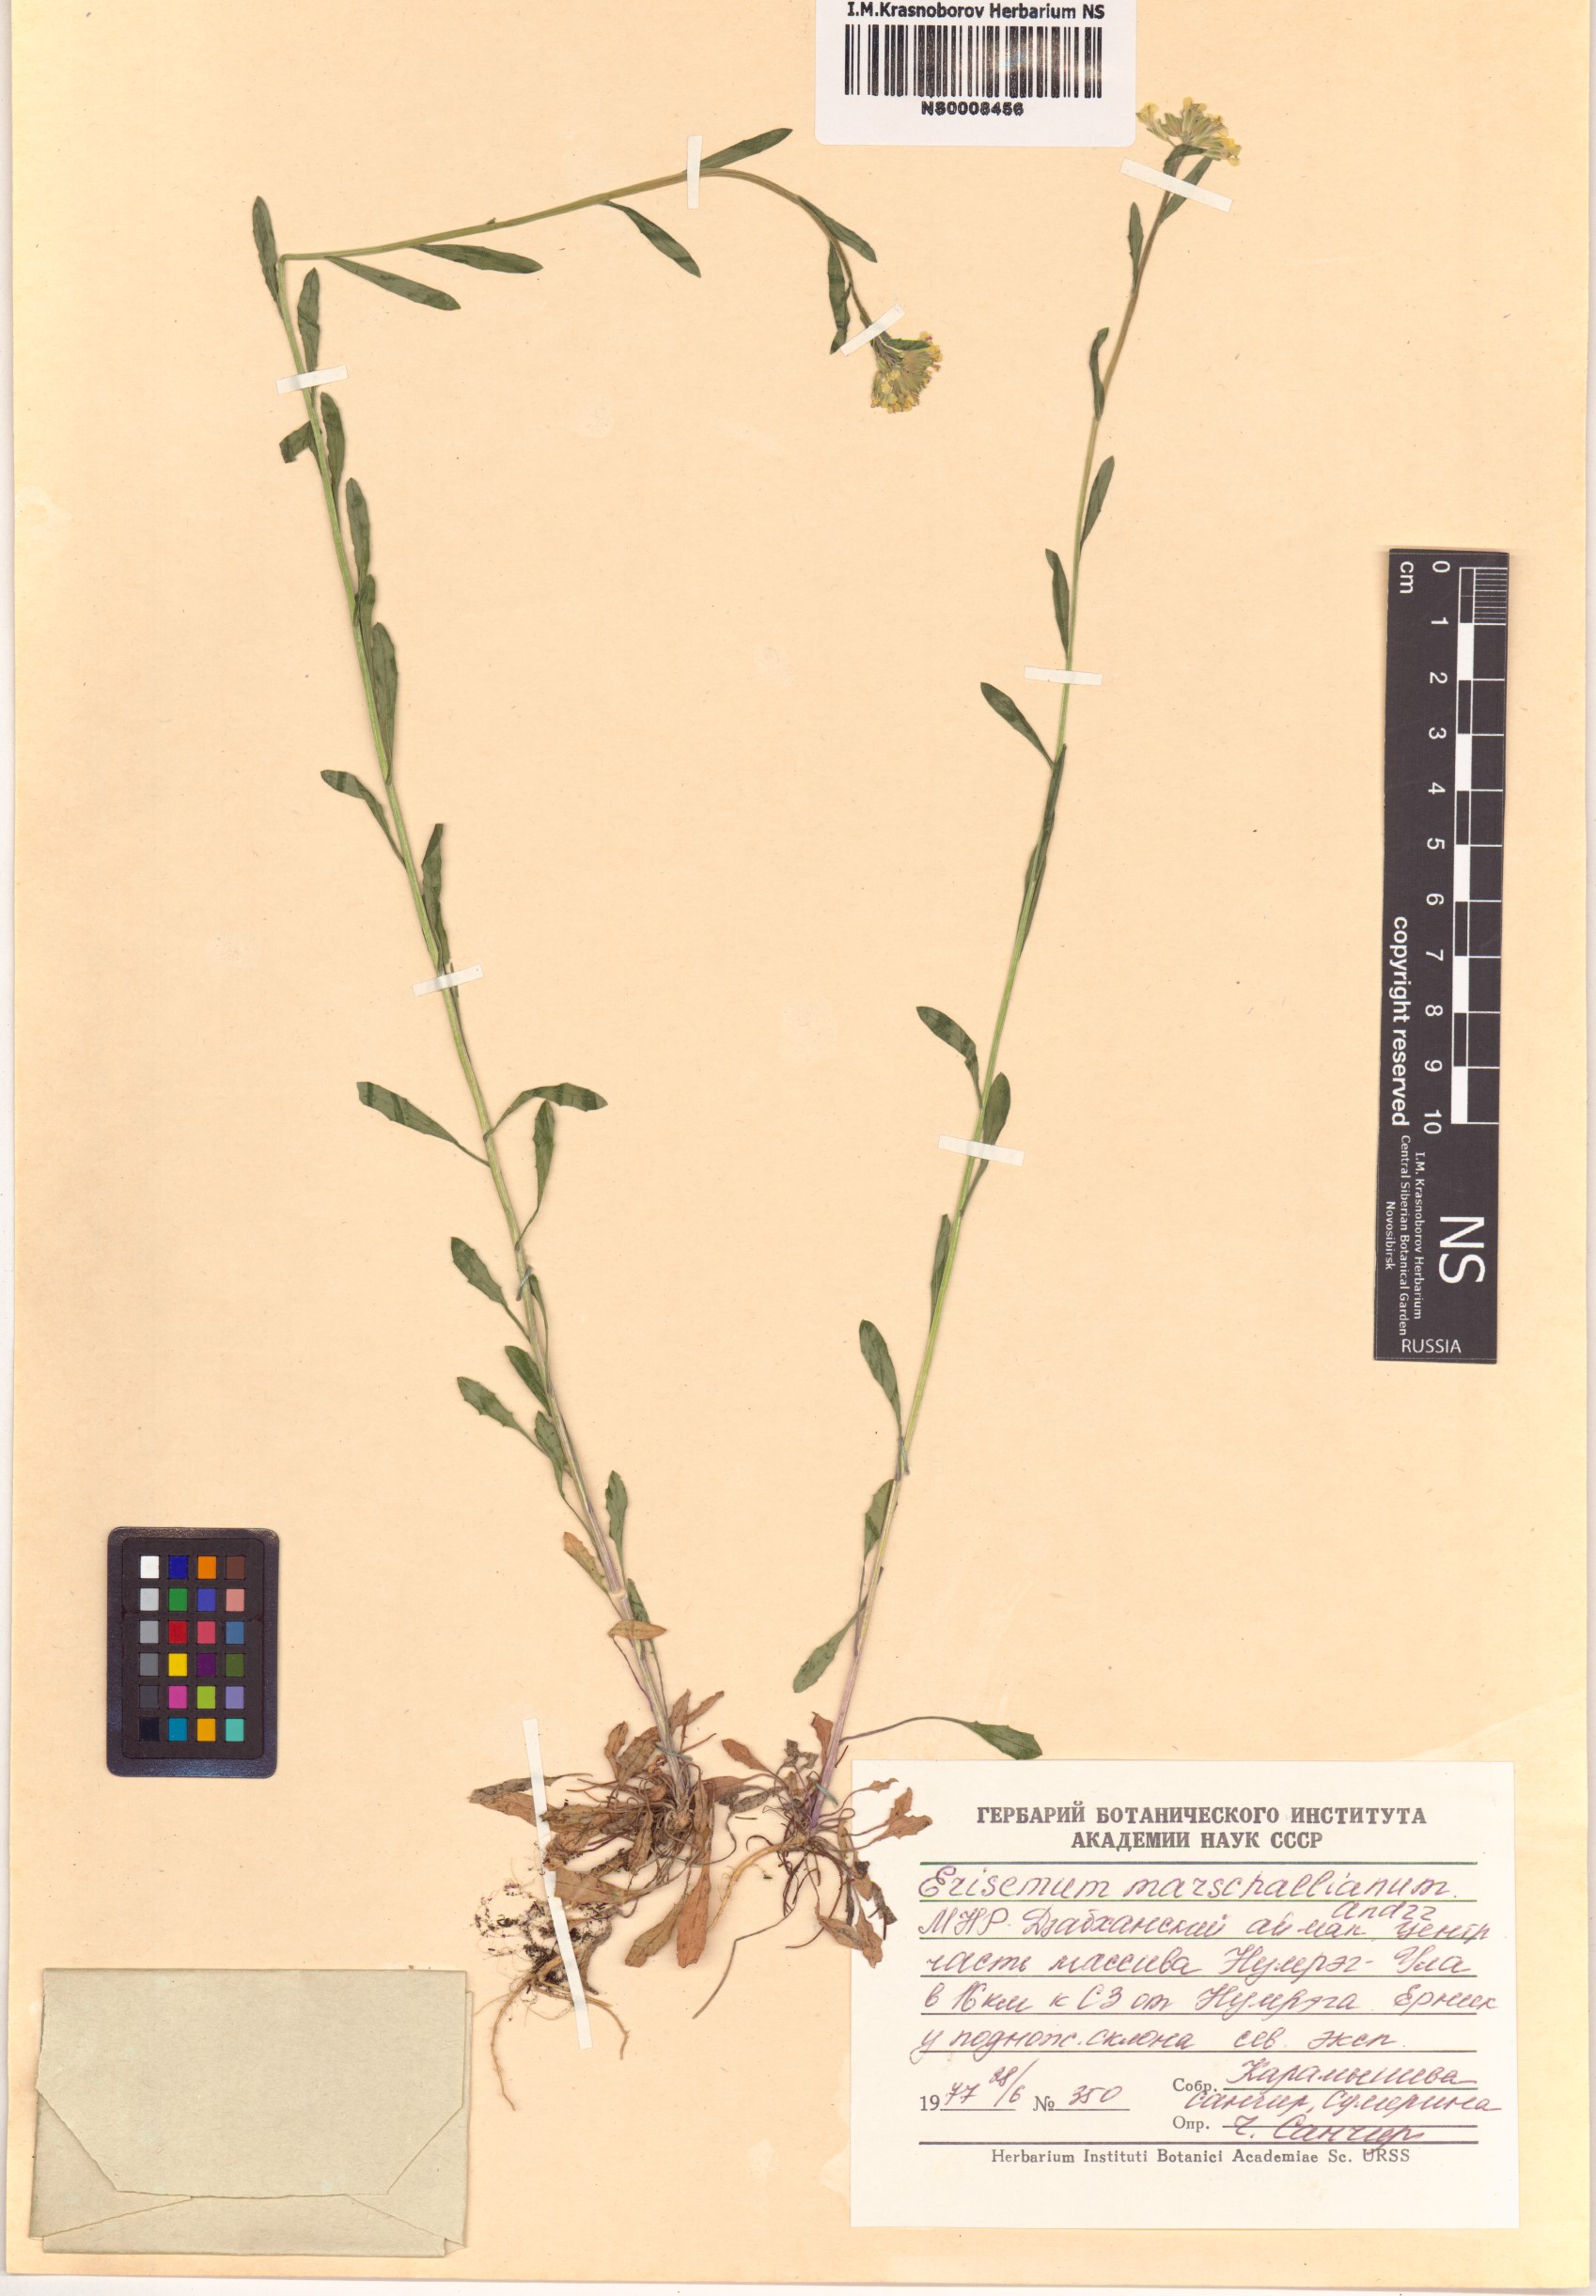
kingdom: Plantae
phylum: Tracheophyta
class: Magnoliopsida
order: Brassicales
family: Brassicaceae
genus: Erysimum
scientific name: Erysimum marschallianum
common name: Hard wallflower
